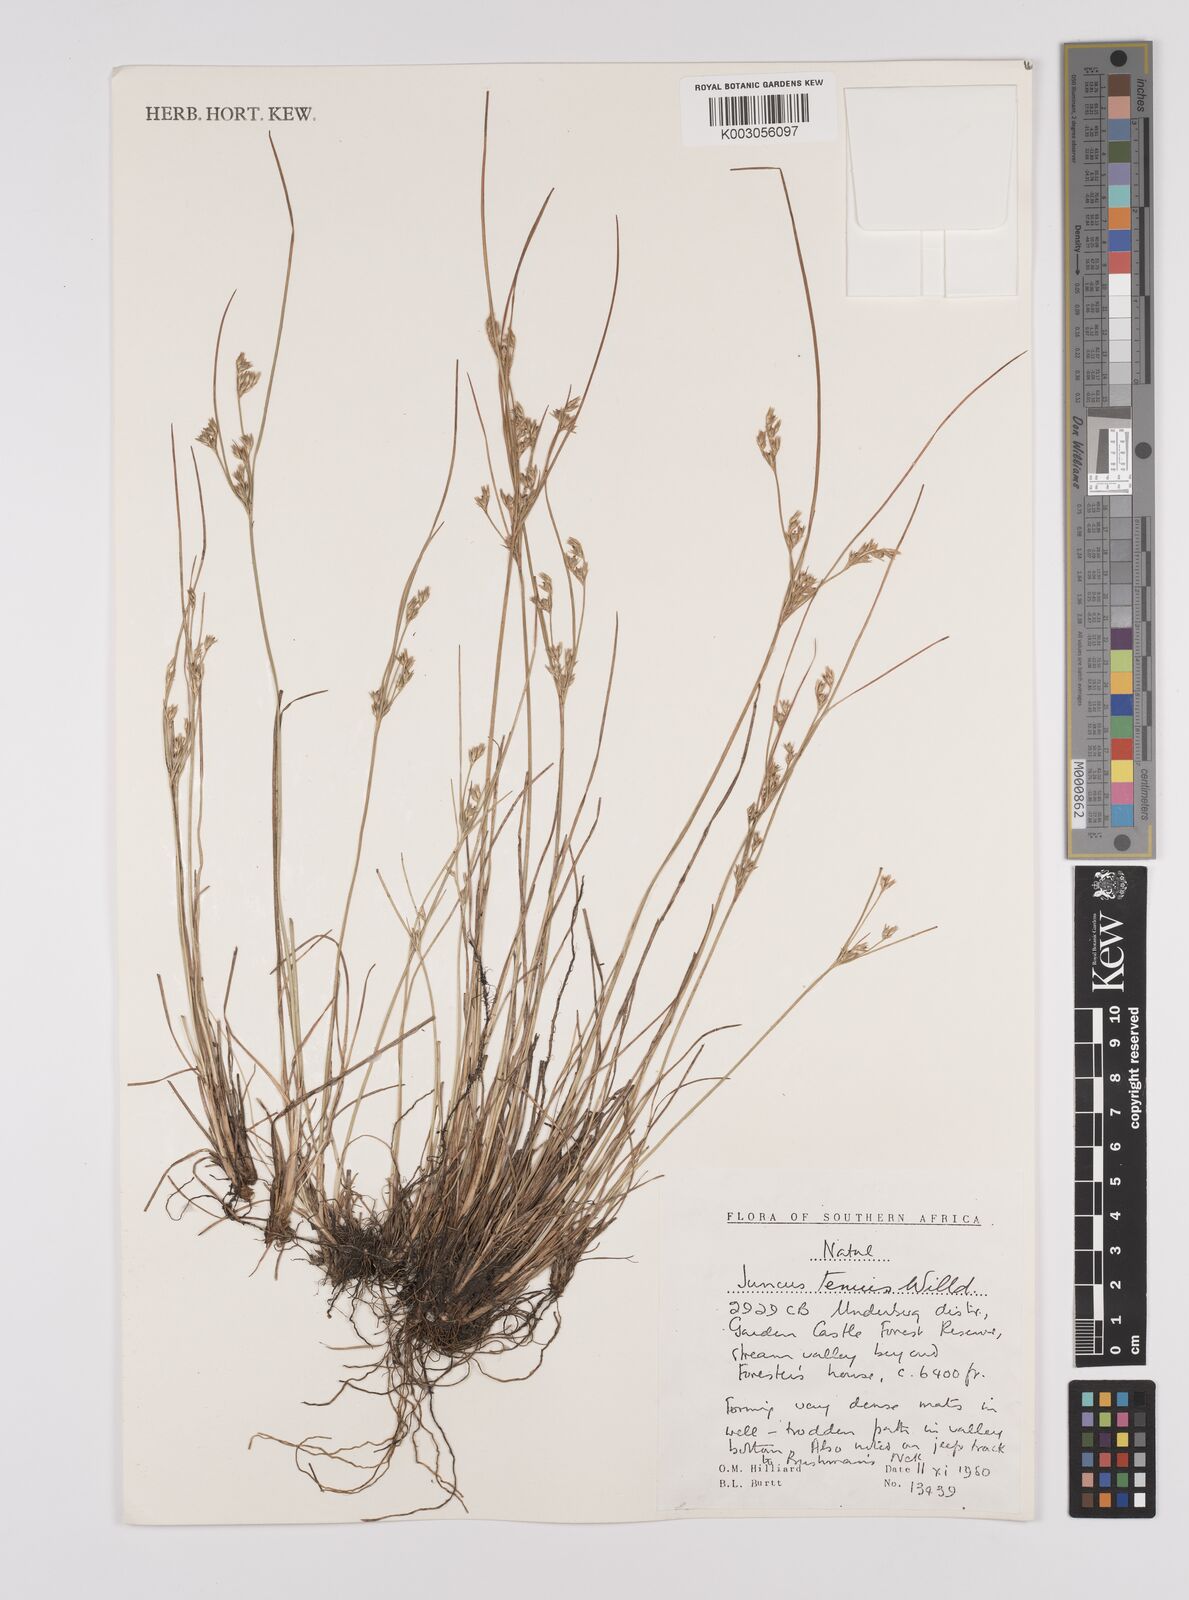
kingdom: Plantae
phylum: Tracheophyta
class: Liliopsida
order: Poales
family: Juncaceae
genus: Juncus
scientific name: Juncus tenuis
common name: Slender rush
